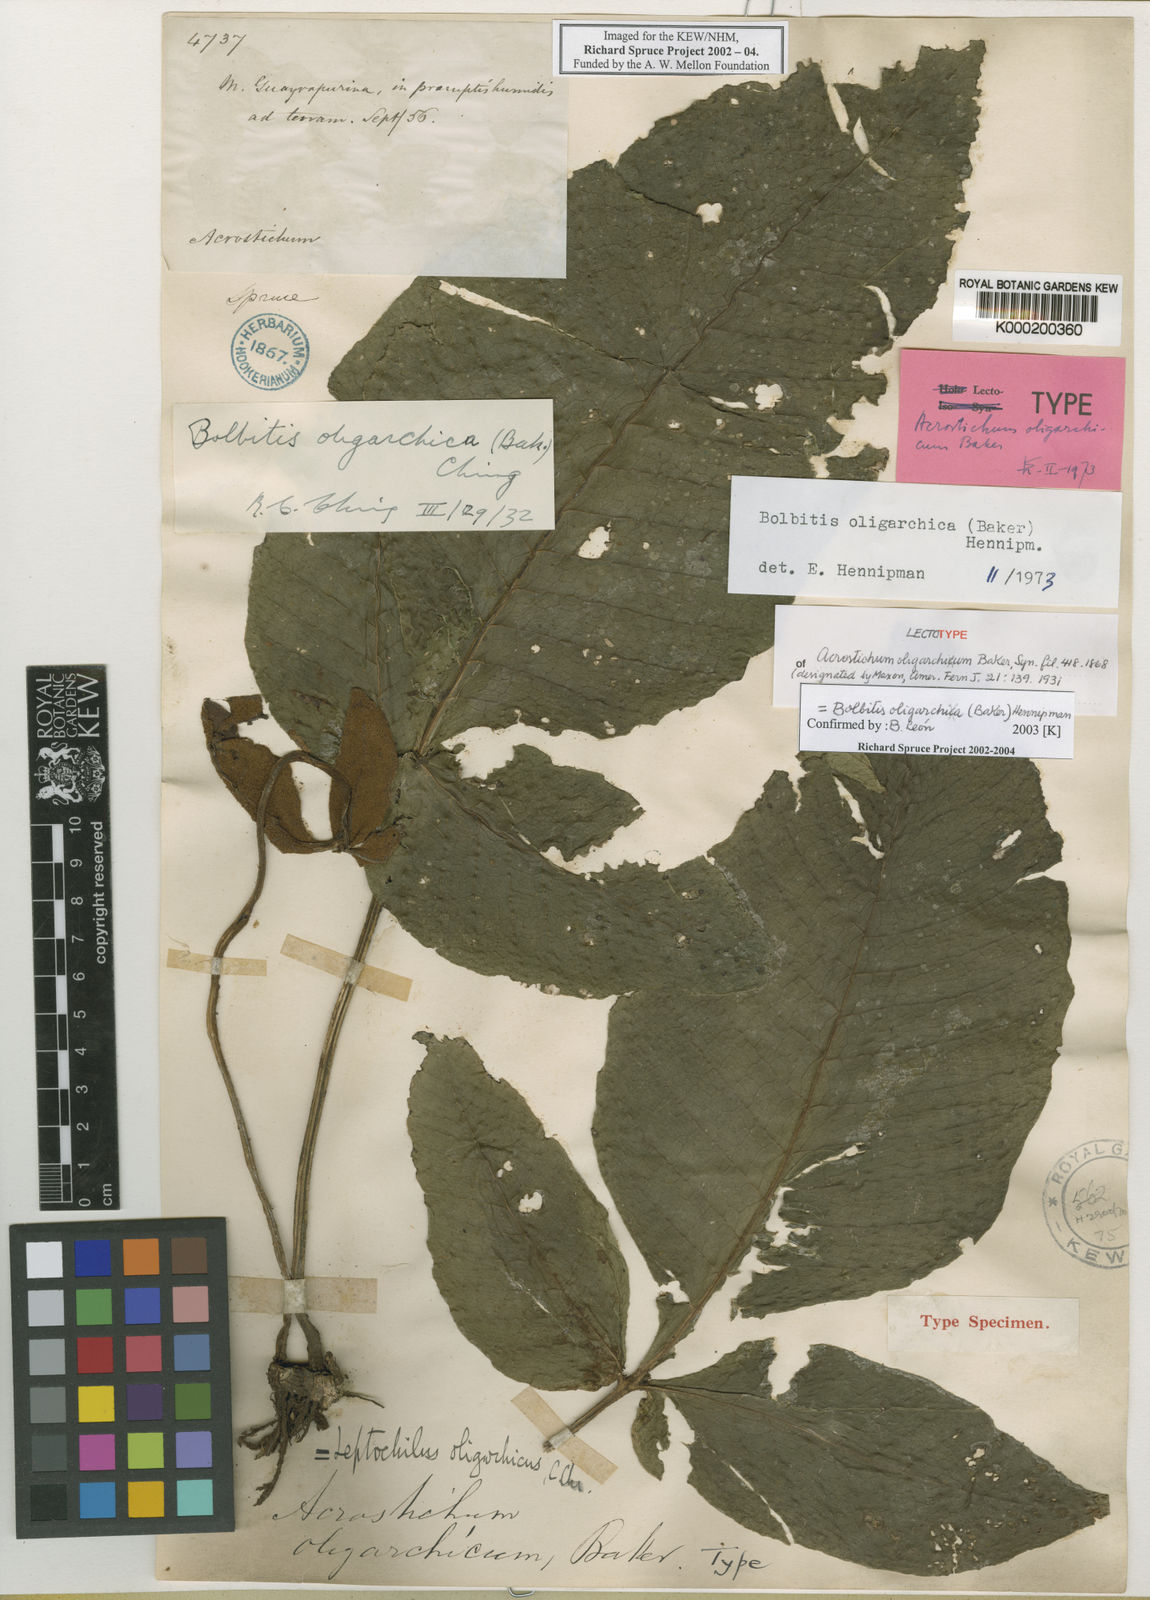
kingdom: Plantae
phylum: Tracheophyta
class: Polypodiopsida
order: Polypodiales
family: Dryopteridaceae
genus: Mickelia
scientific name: Mickelia oligarchica
